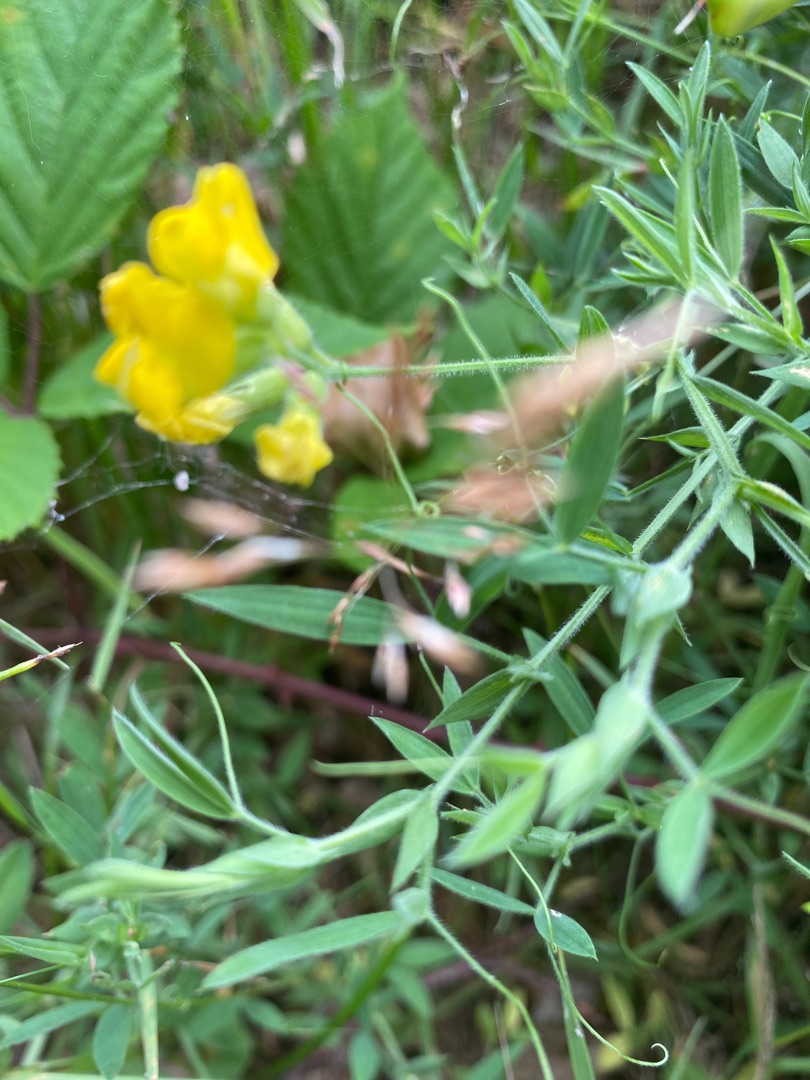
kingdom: Plantae
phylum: Tracheophyta
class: Magnoliopsida
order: Fabales
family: Fabaceae
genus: Lathyrus
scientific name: Lathyrus pratensis
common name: Gul fladbælg
